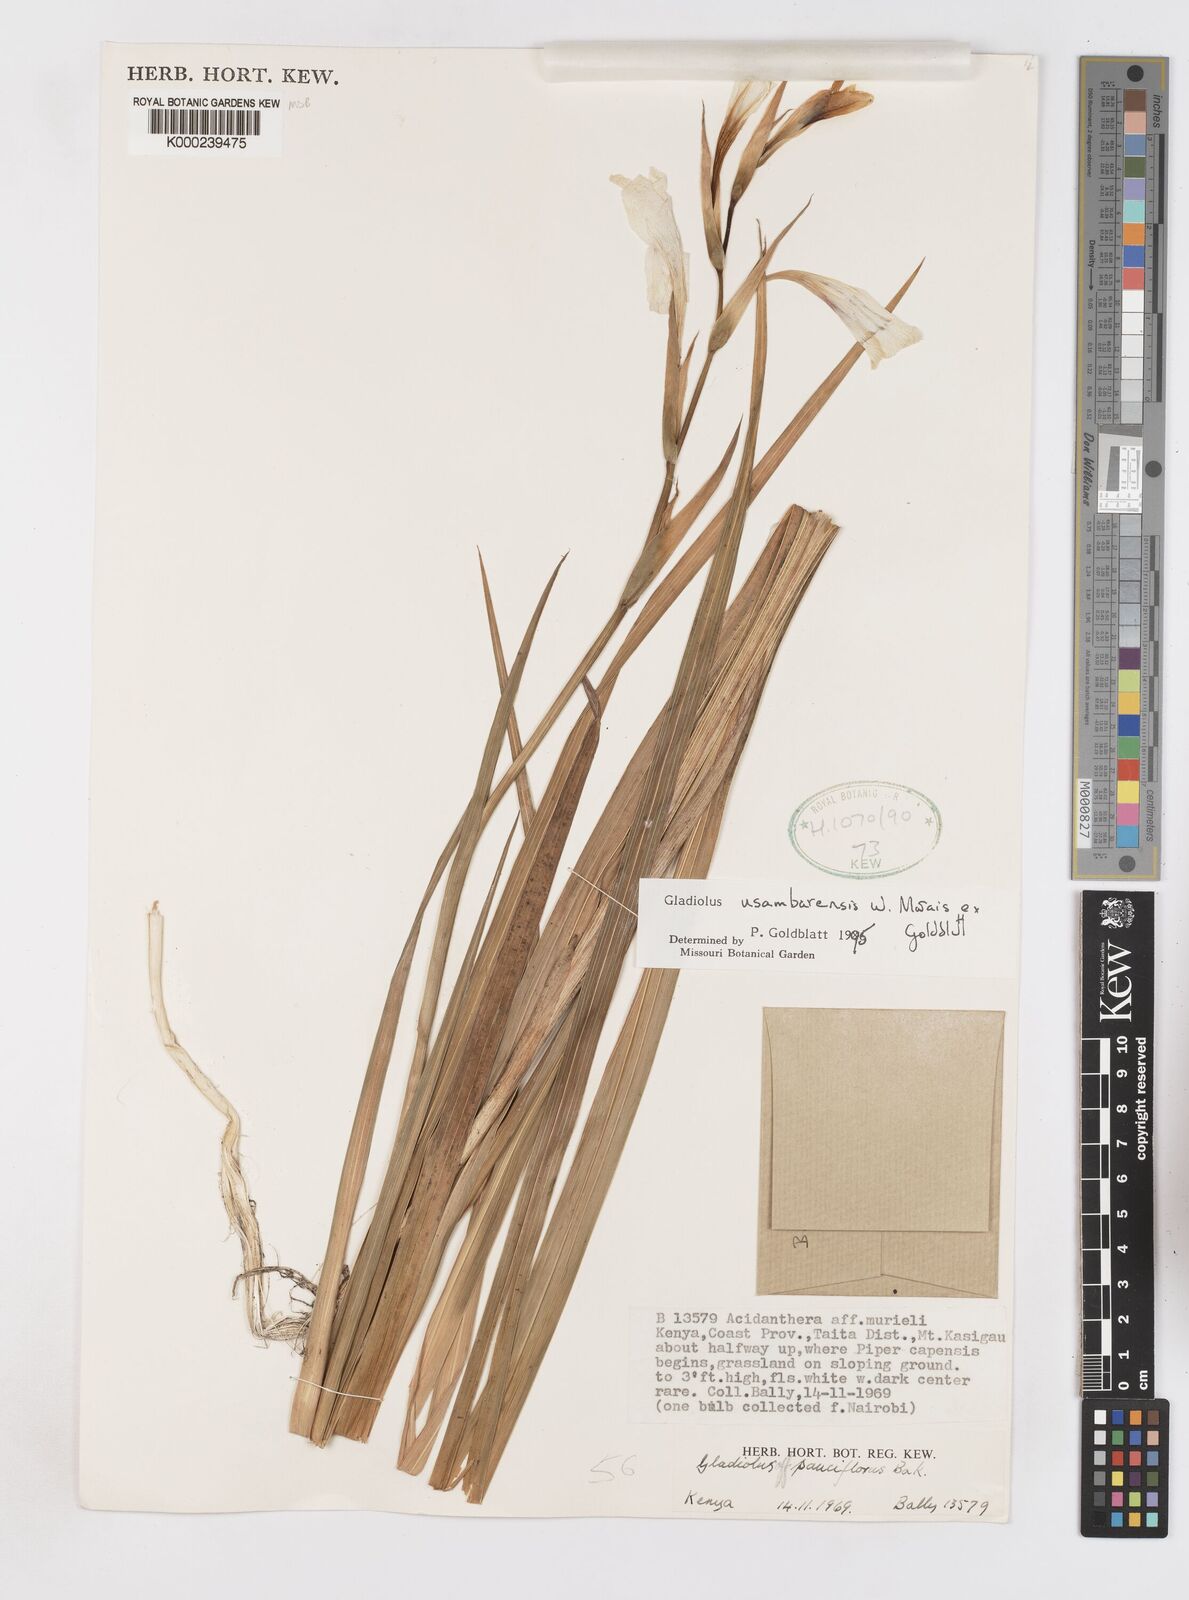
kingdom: Plantae
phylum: Tracheophyta
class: Liliopsida
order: Asparagales
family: Iridaceae
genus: Gladiolus
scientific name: Gladiolus usambarensis
